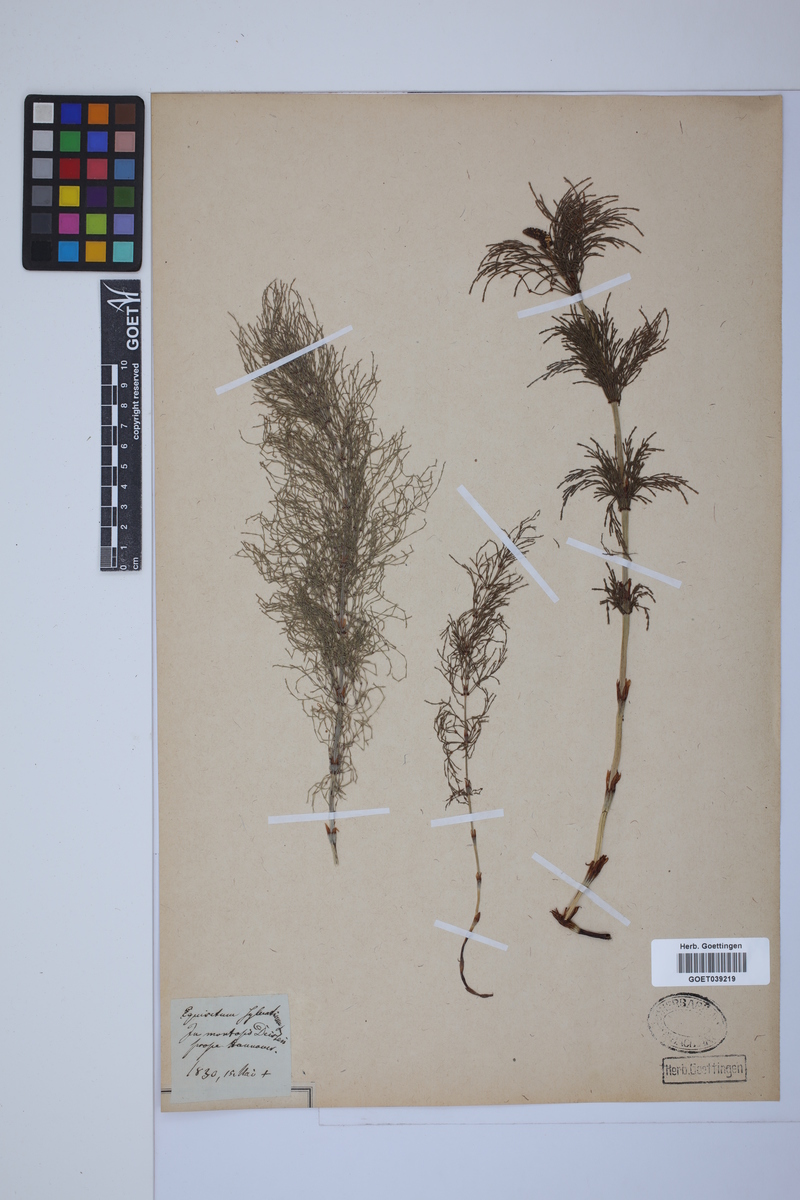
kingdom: Plantae
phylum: Tracheophyta
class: Polypodiopsida
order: Equisetales
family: Equisetaceae
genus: Equisetum
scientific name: Equisetum sylvaticum
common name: Wood horsetail
